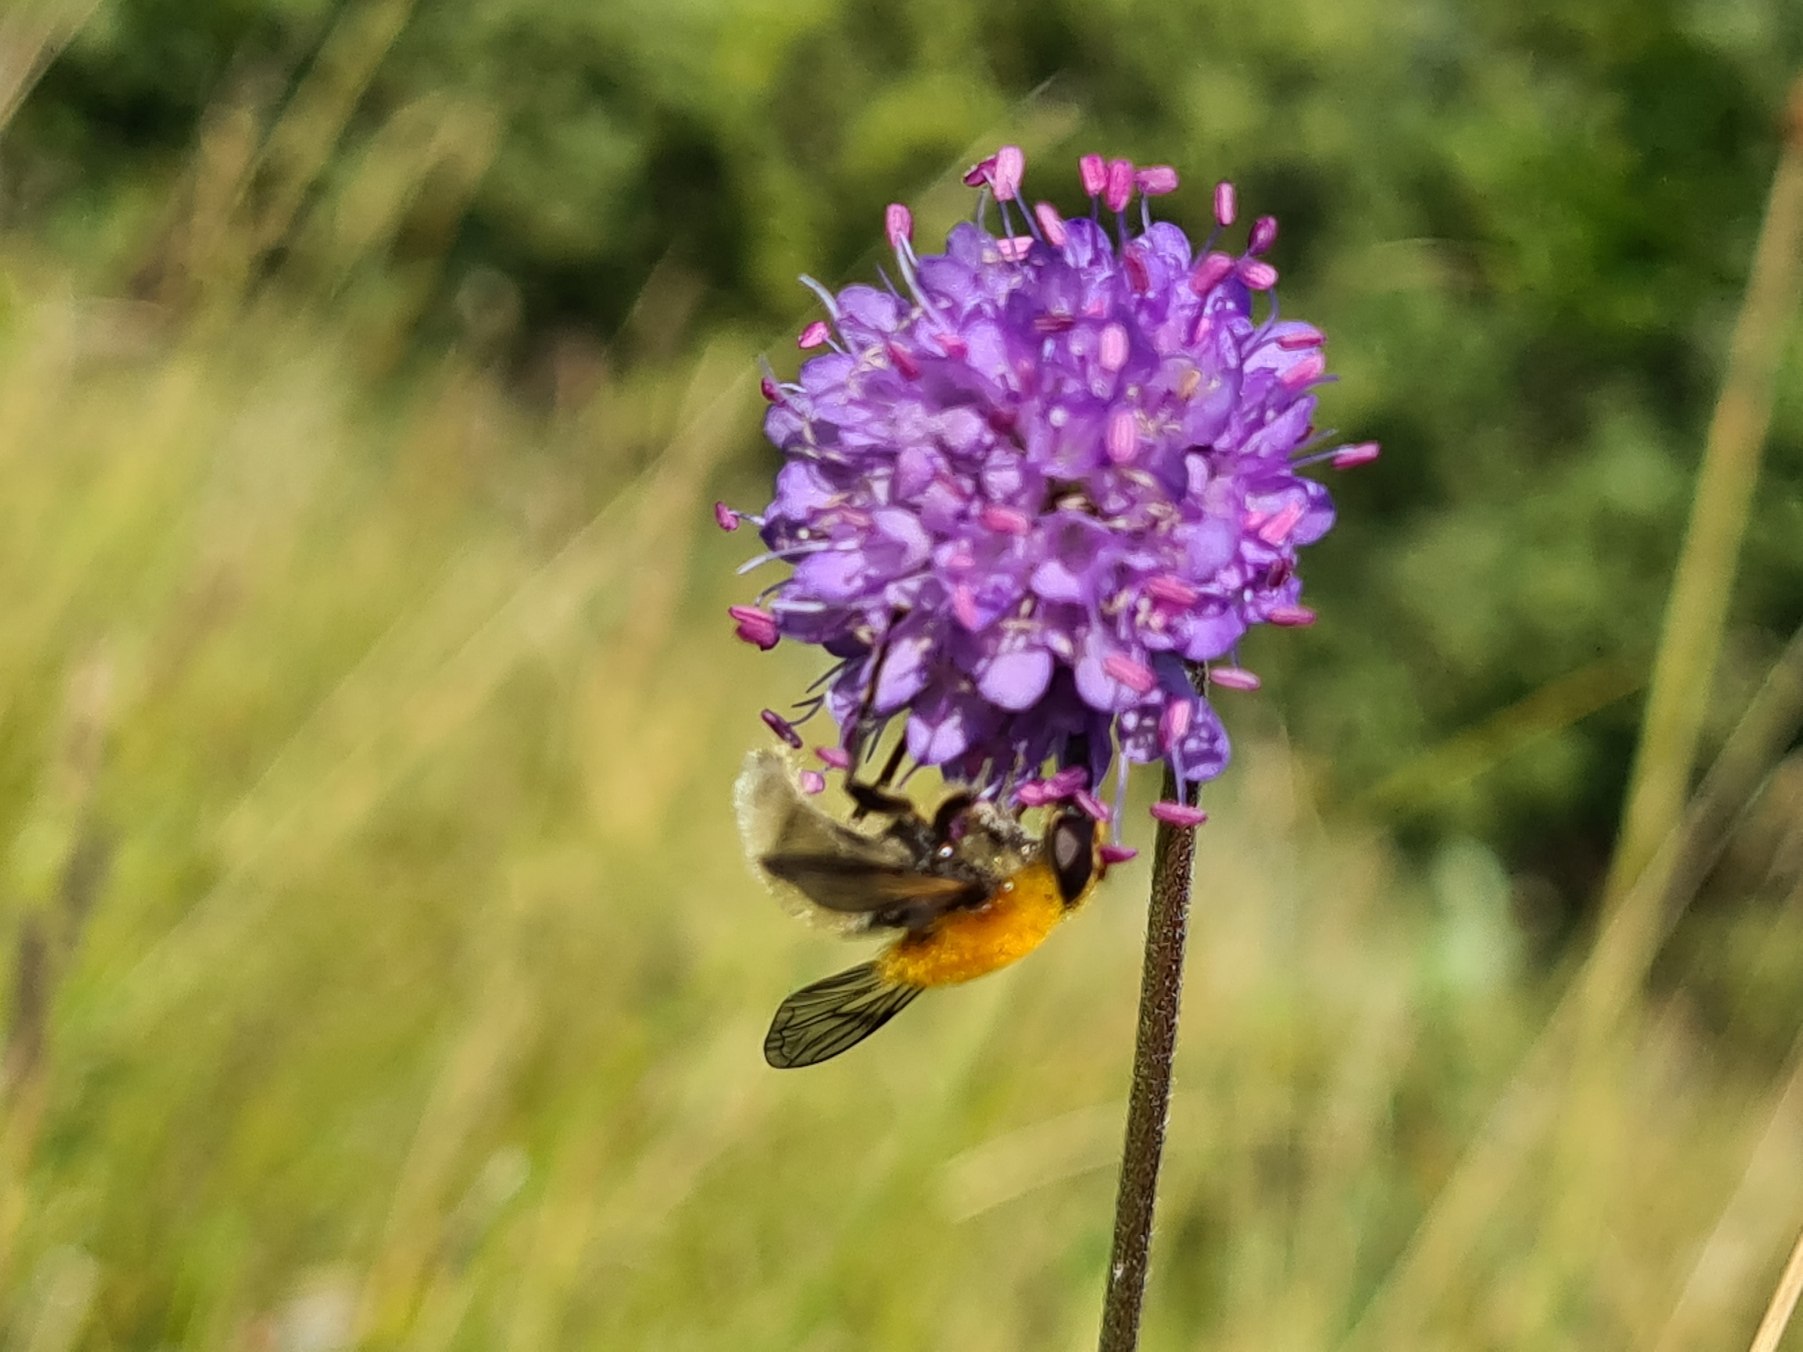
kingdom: Animalia
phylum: Arthropoda
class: Insecta
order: Diptera
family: Syrphidae
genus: Sericomyia
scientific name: Sericomyia superbiens
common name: Brun bjørnesvirreflue
